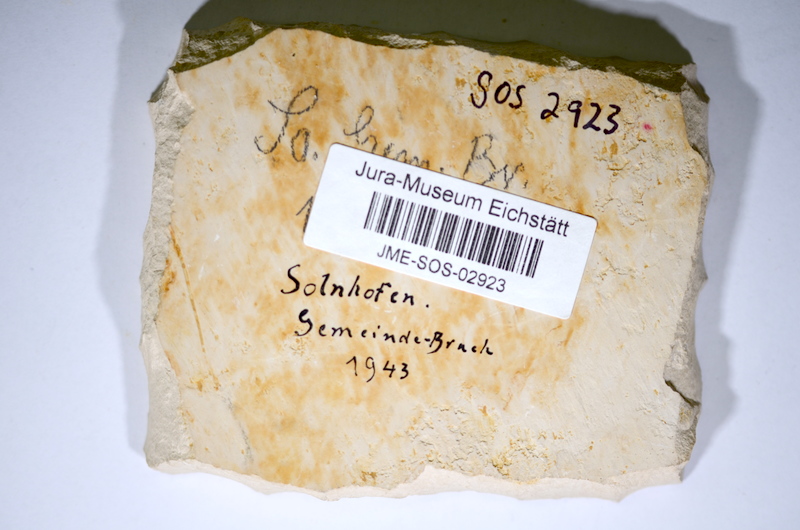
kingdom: Animalia
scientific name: Animalia
